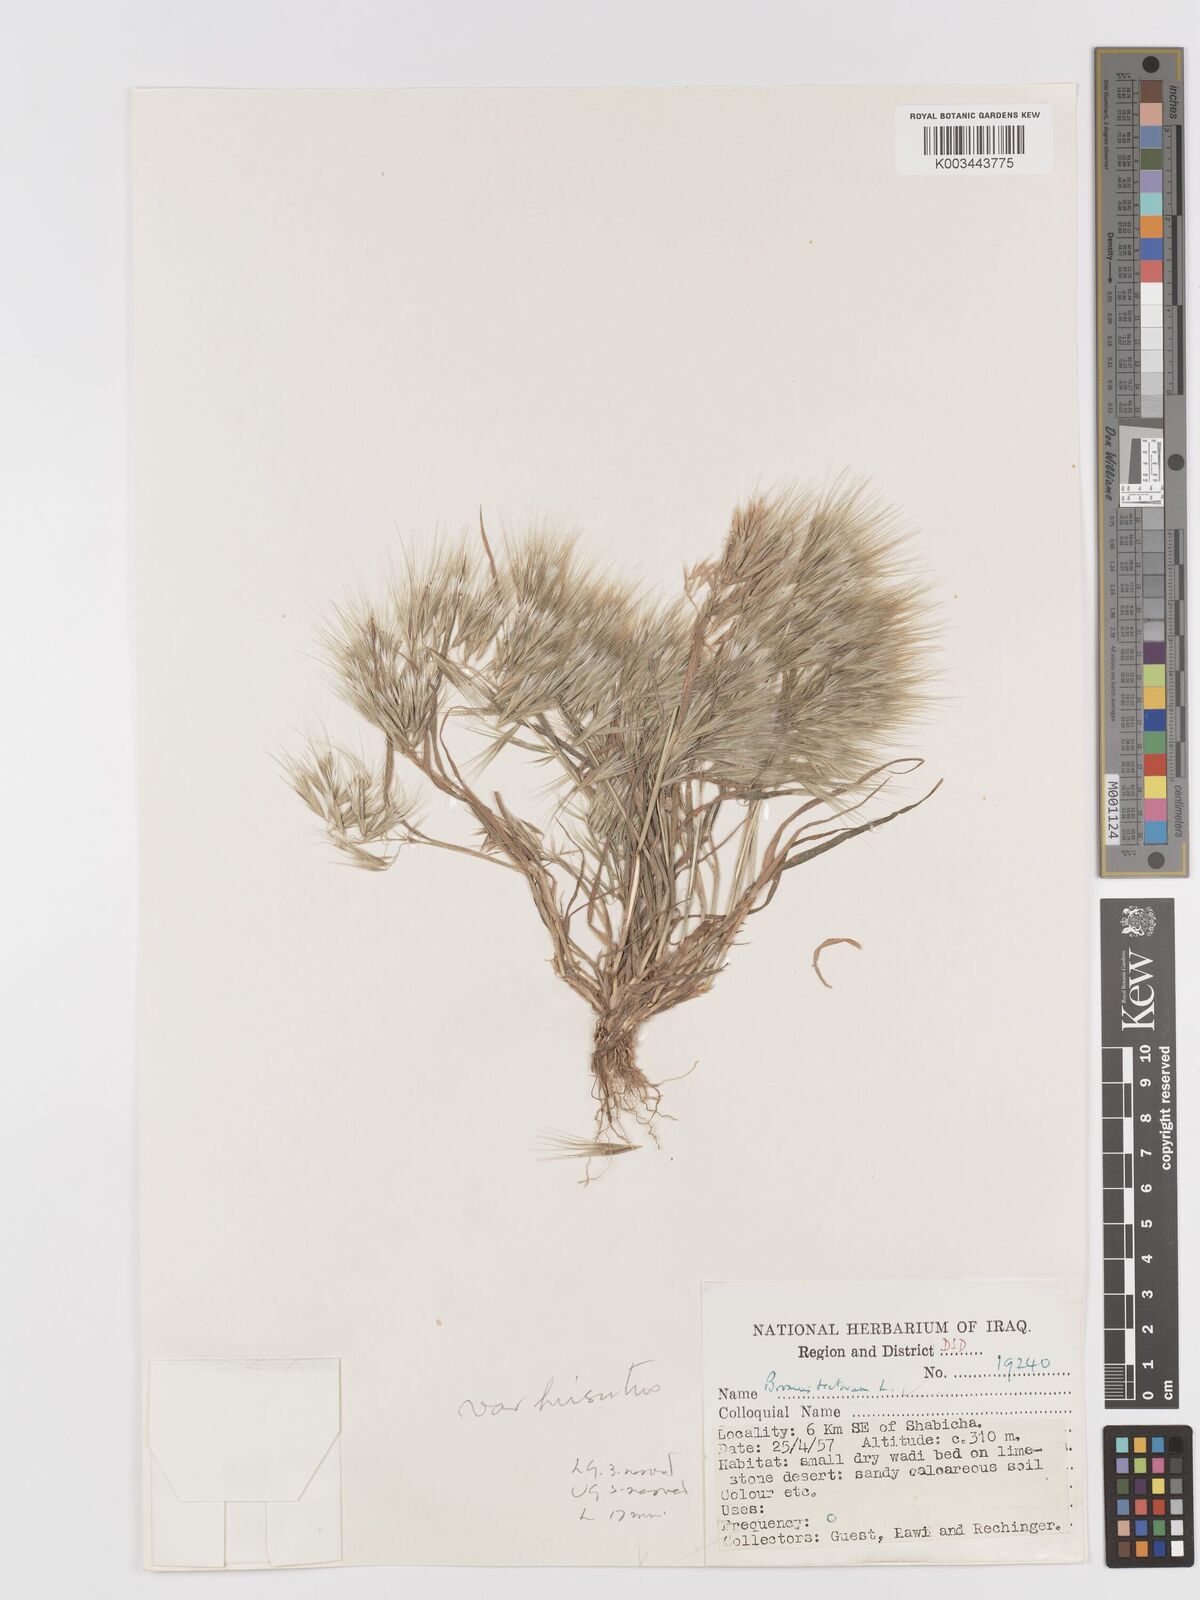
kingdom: Plantae
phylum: Tracheophyta
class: Liliopsida
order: Poales
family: Poaceae
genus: Bromus
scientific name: Bromus tectorum
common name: Cheatgrass
